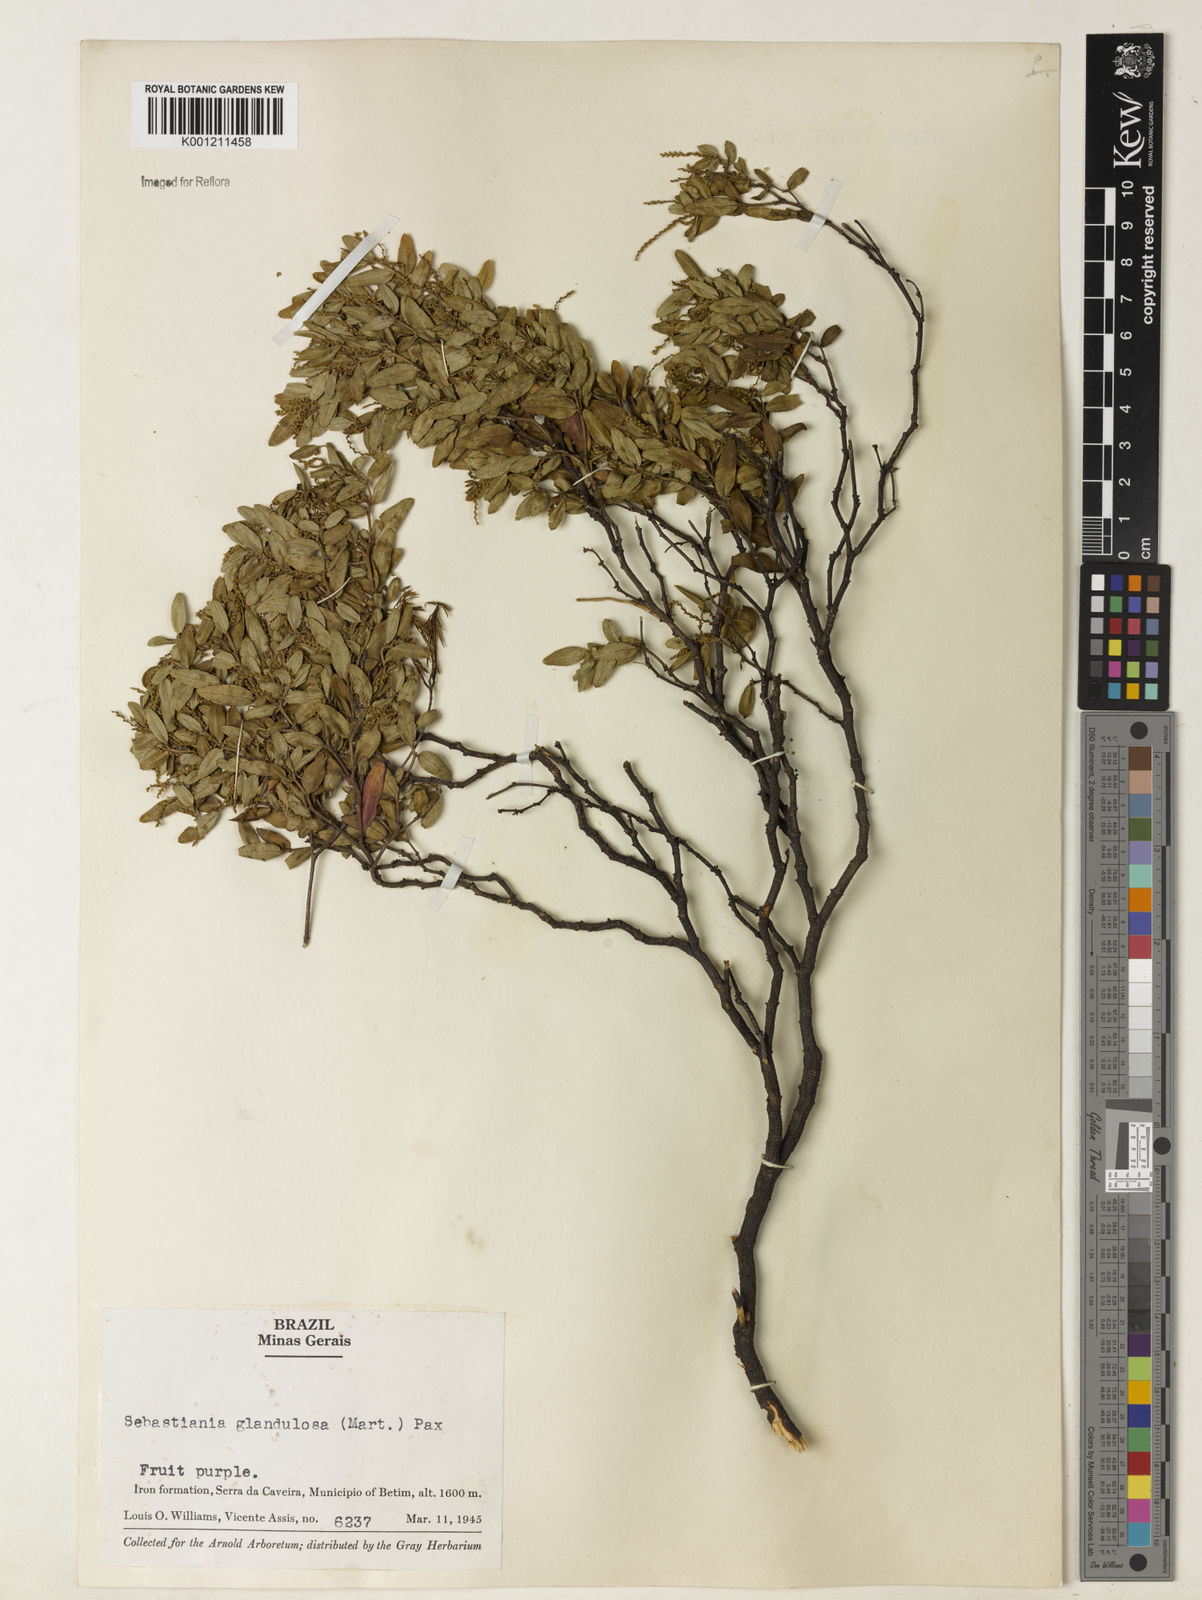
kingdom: Plantae
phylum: Tracheophyta
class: Magnoliopsida
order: Malpighiales
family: Euphorbiaceae
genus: Microstachys
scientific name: Microstachys glandulosa
